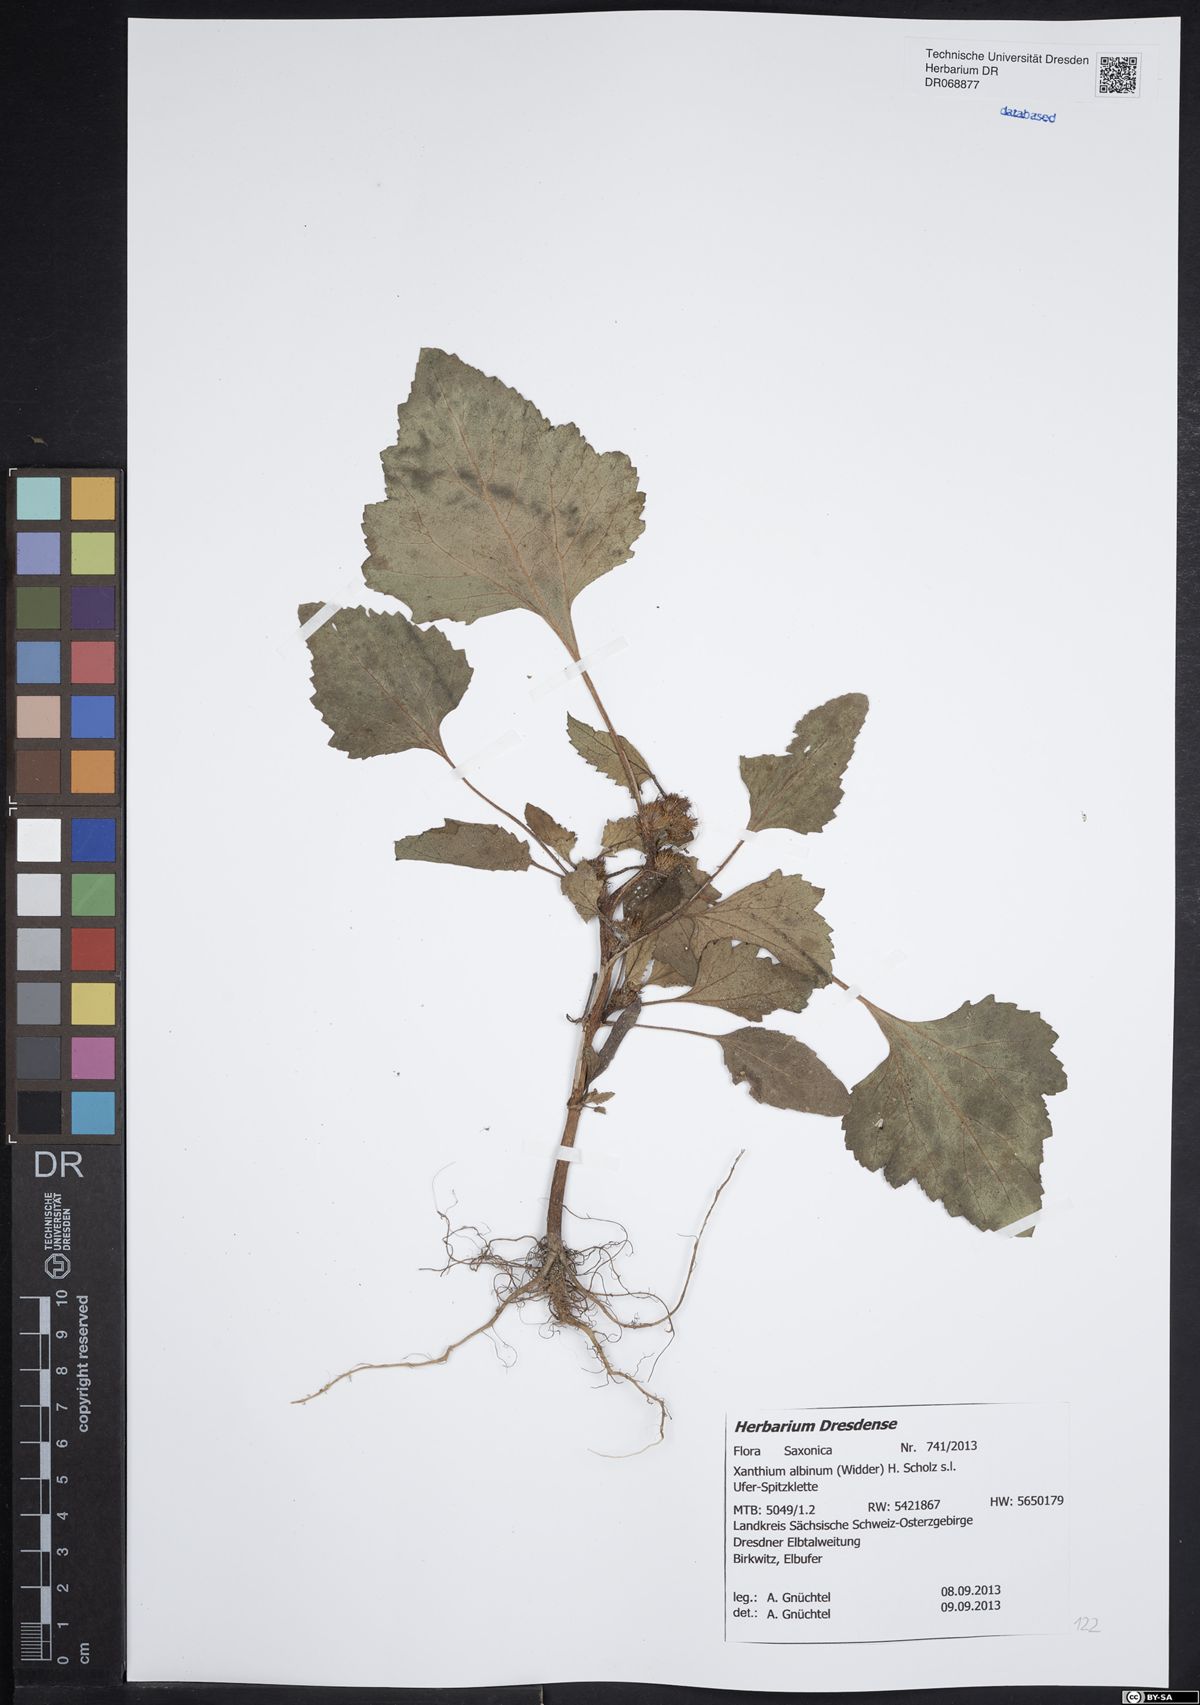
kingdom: Plantae
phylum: Tracheophyta
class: Magnoliopsida
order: Asterales
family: Asteraceae
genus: Xanthium
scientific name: Xanthium orientale
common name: Californian burr
